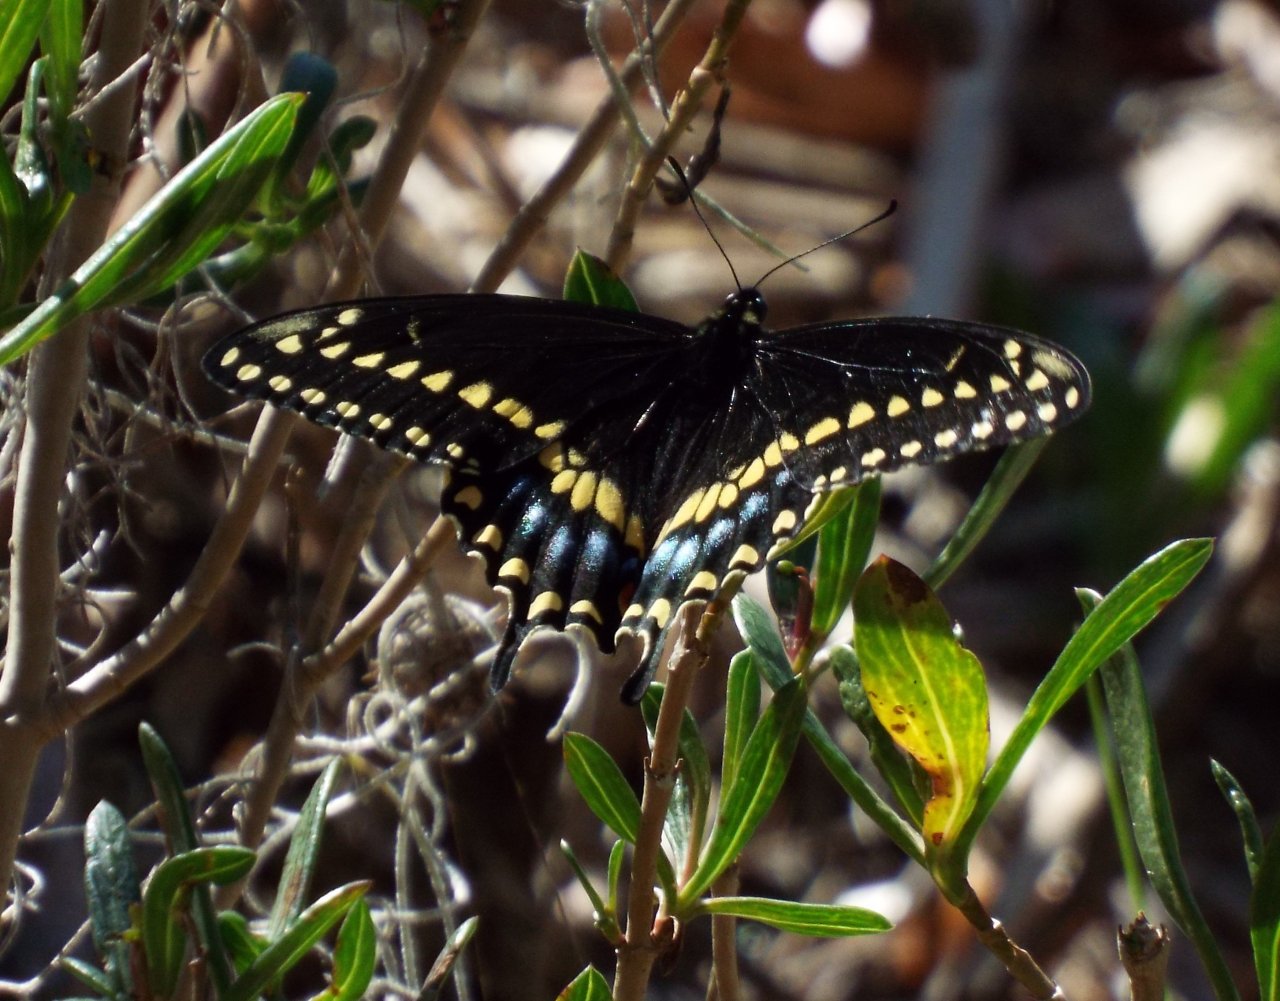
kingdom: Animalia
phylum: Arthropoda
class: Insecta
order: Lepidoptera
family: Papilionidae
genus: Papilio
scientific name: Papilio polyxenes
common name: Black Swallowtail
